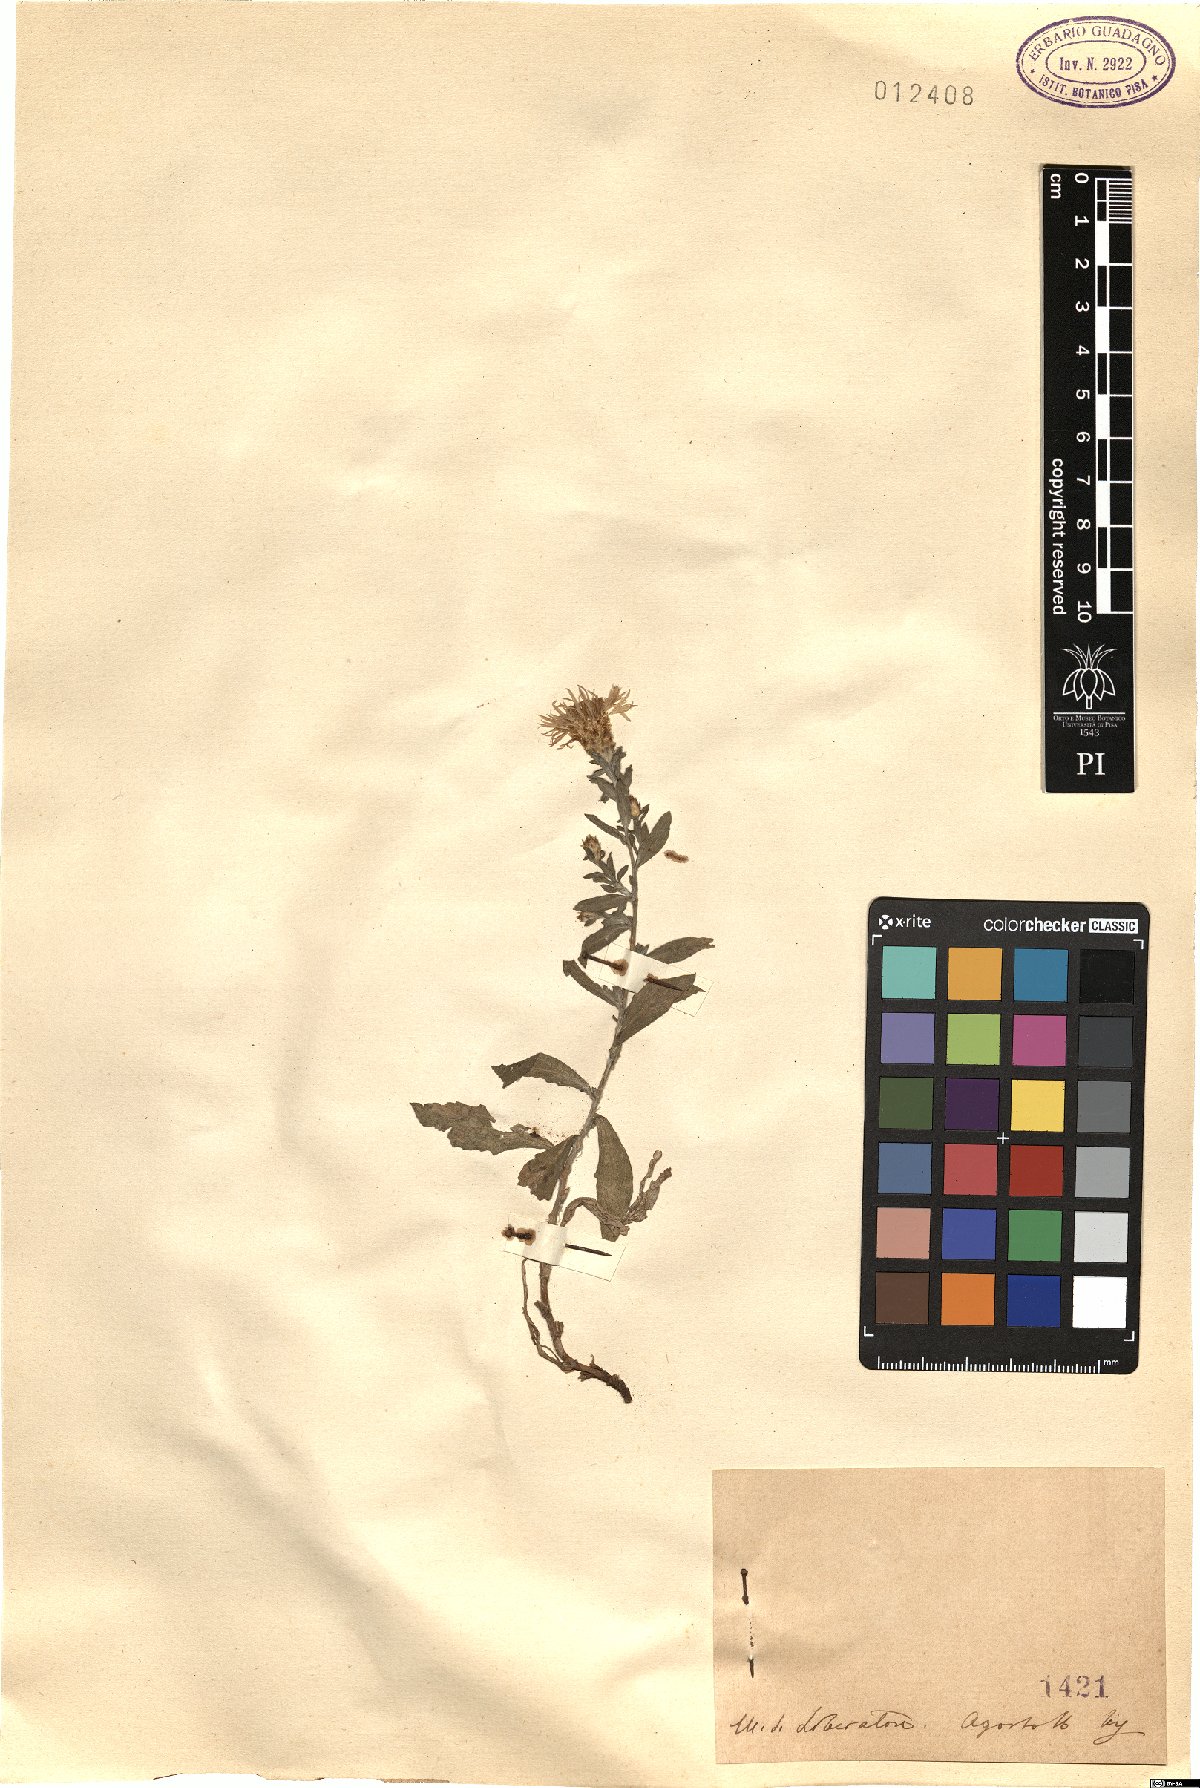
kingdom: Plantae
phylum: Tracheophyta
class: Magnoliopsida
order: Asterales
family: Asteraceae
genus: Centaurea
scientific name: Centaurea
